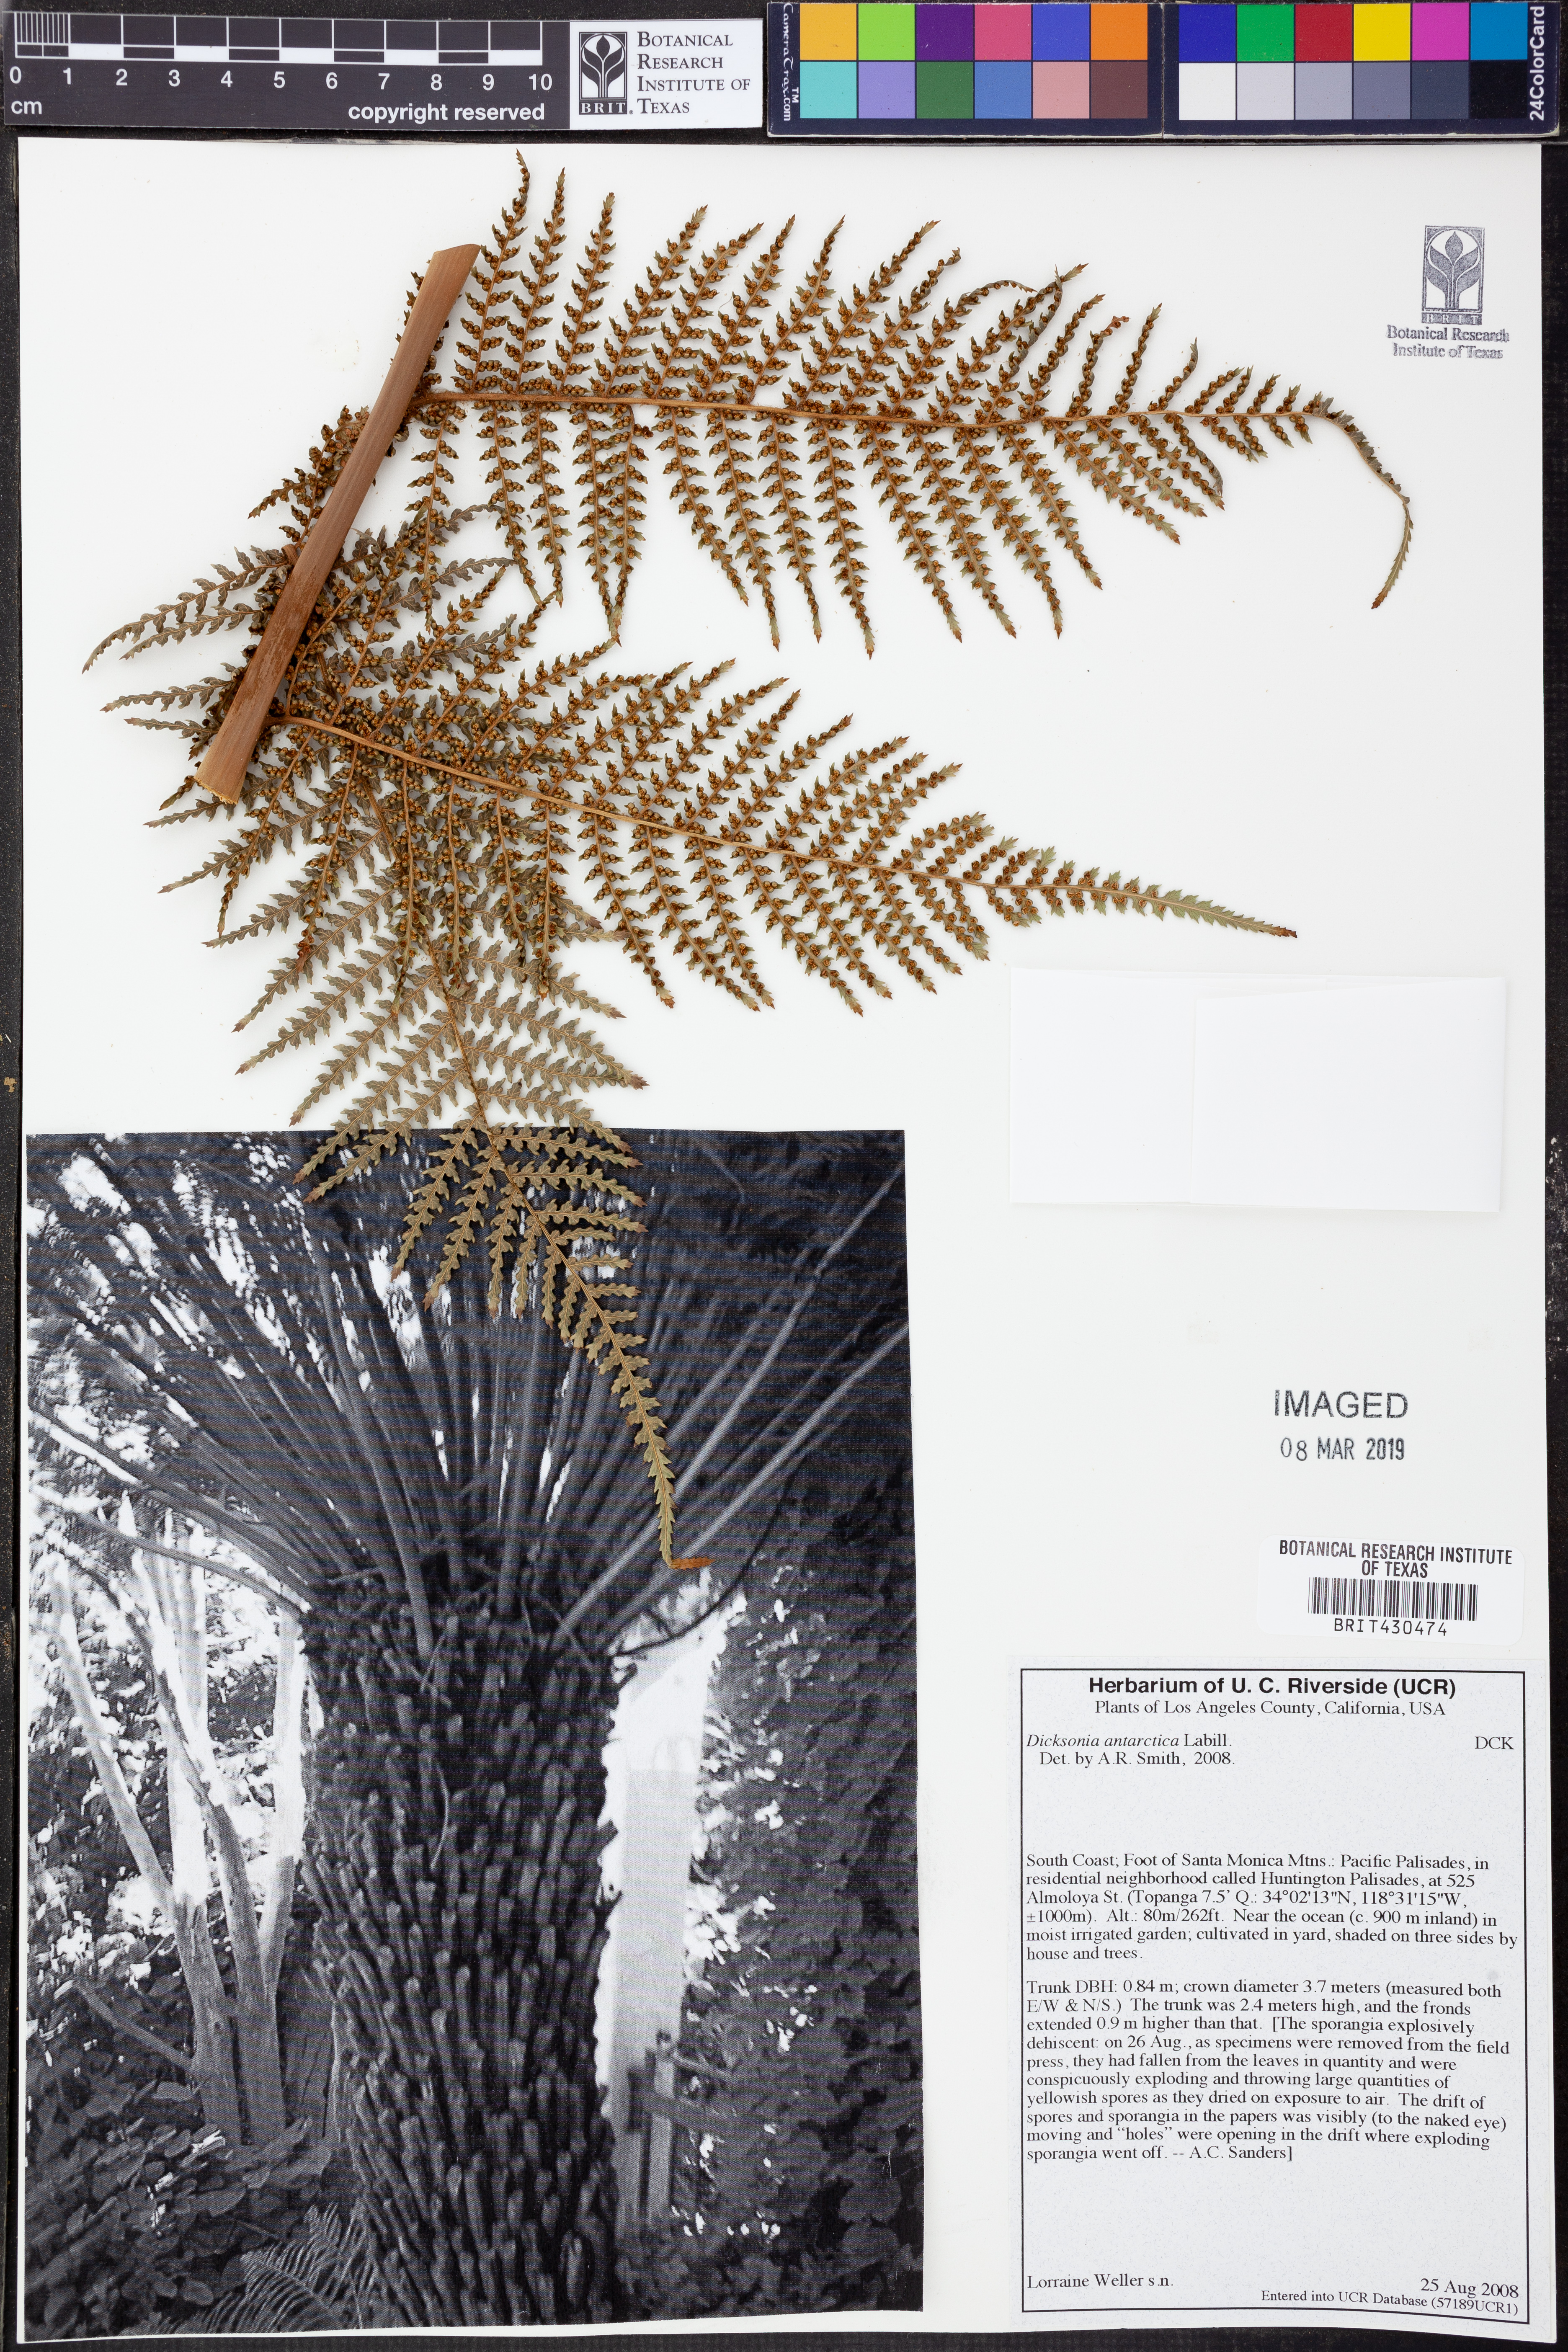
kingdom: Plantae
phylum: Tracheophyta
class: Polypodiopsida
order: Cyatheales
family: Dicksoniaceae
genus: Dicksonia
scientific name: Dicksonia antarctica
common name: Australian treefern
